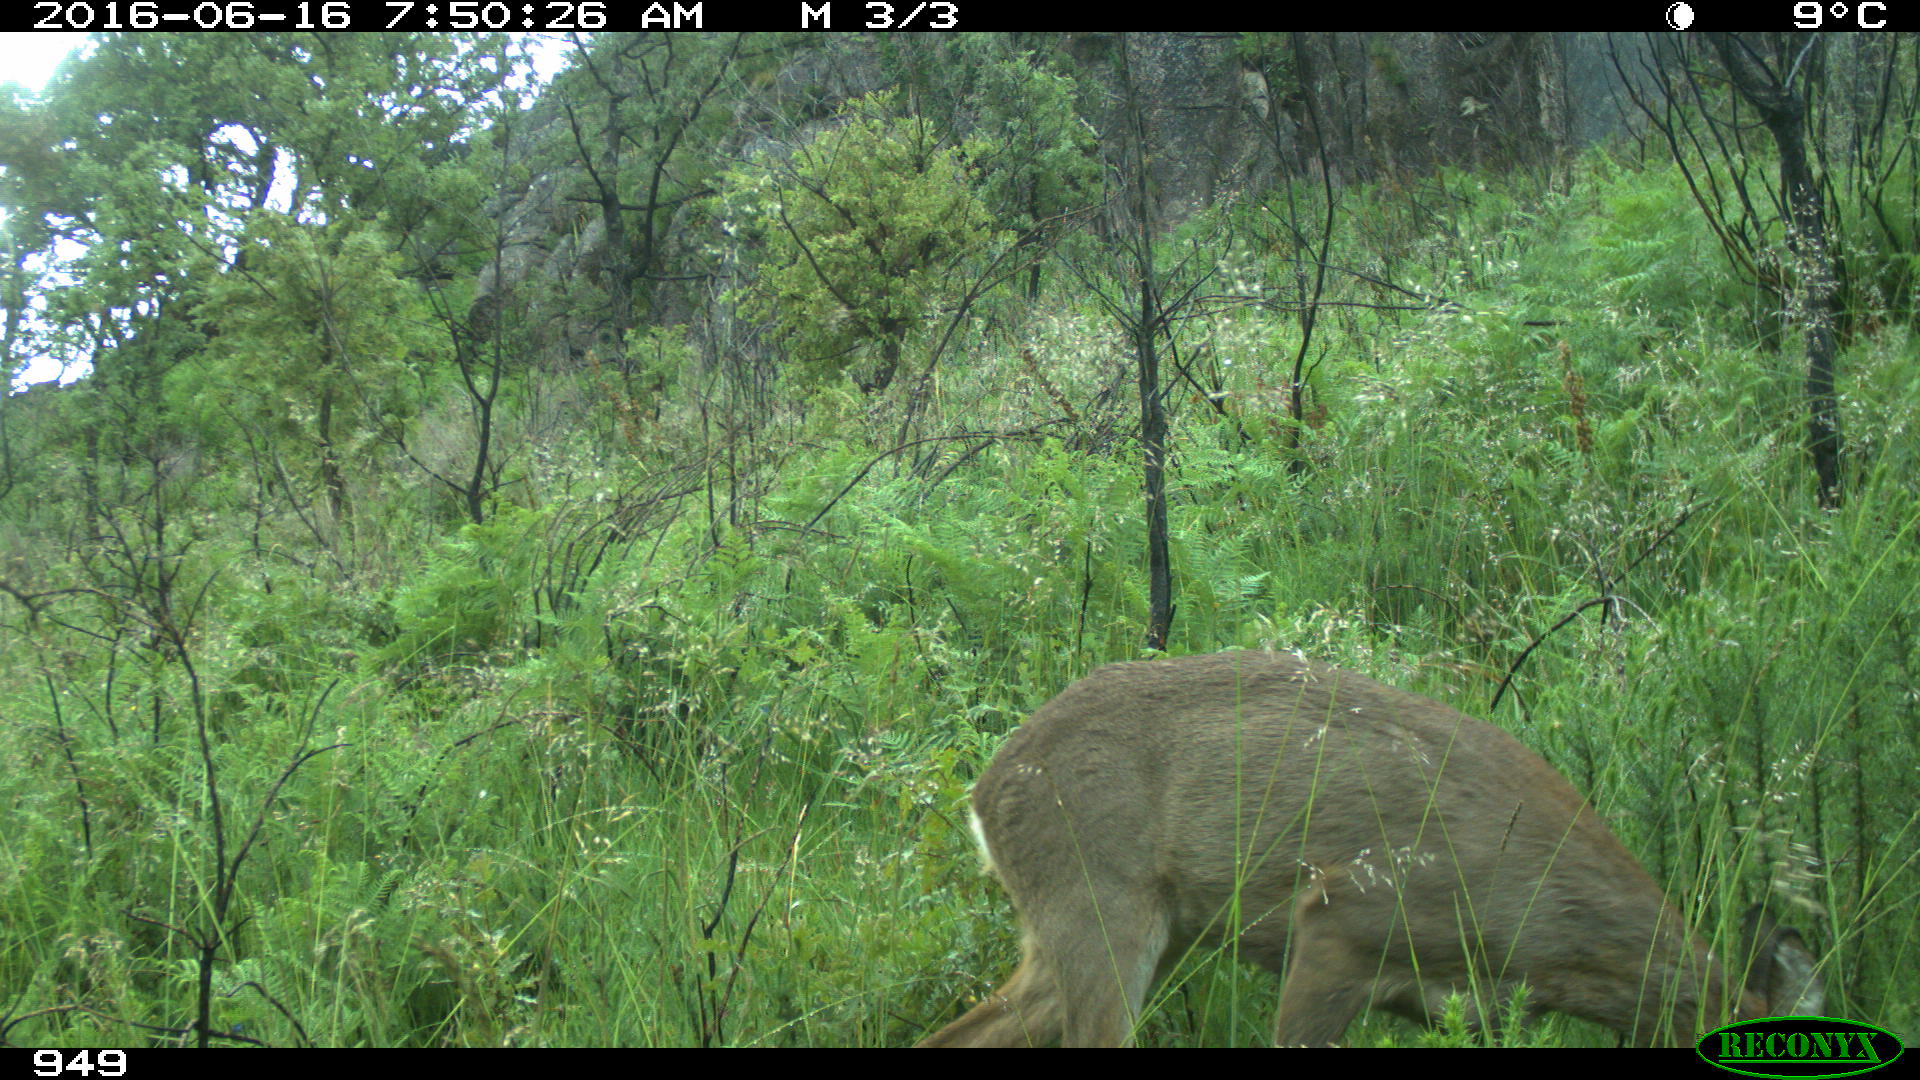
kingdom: Animalia
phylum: Chordata
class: Mammalia
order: Artiodactyla
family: Cervidae
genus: Capreolus
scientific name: Capreolus capreolus
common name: Western roe deer
